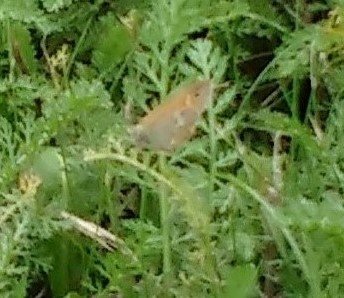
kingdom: Animalia
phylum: Arthropoda
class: Insecta
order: Lepidoptera
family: Nymphalidae
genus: Coenonympha
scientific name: Coenonympha tullia
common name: Large Heath
